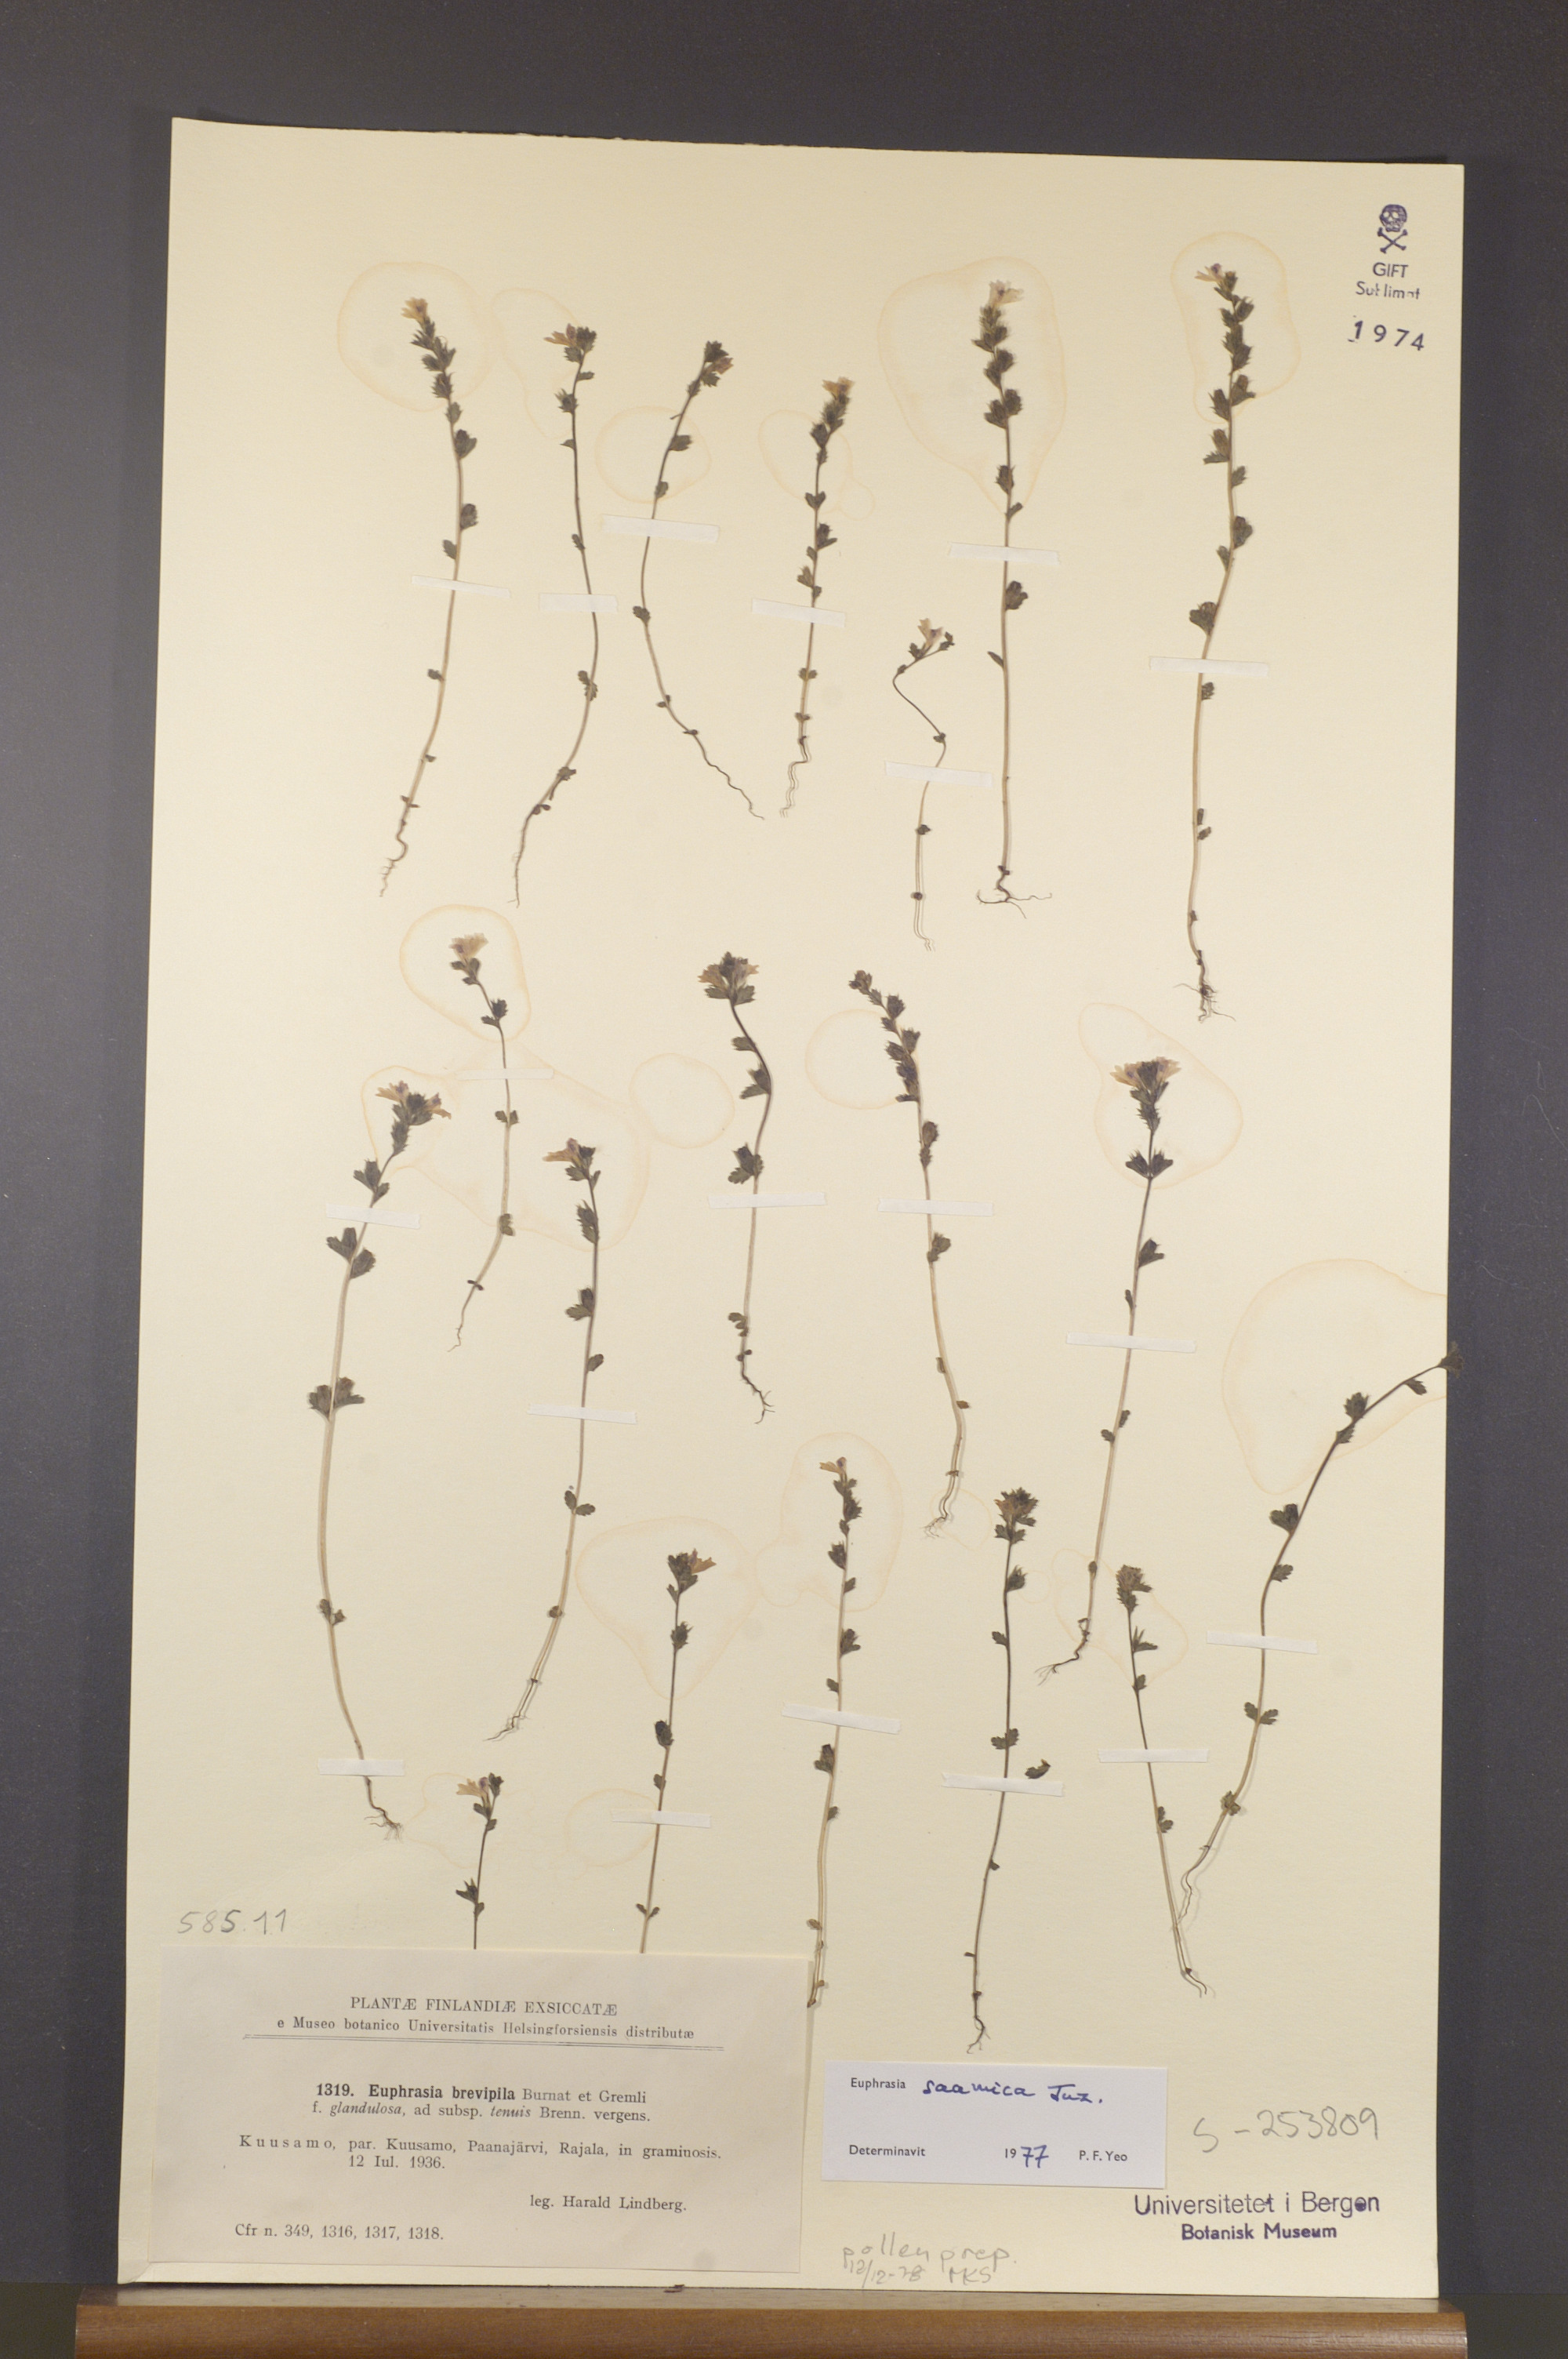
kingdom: Plantae
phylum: Tracheophyta
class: Magnoliopsida
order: Lamiales
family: Orobanchaceae
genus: Euphrasia
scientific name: Euphrasia hyperborea
